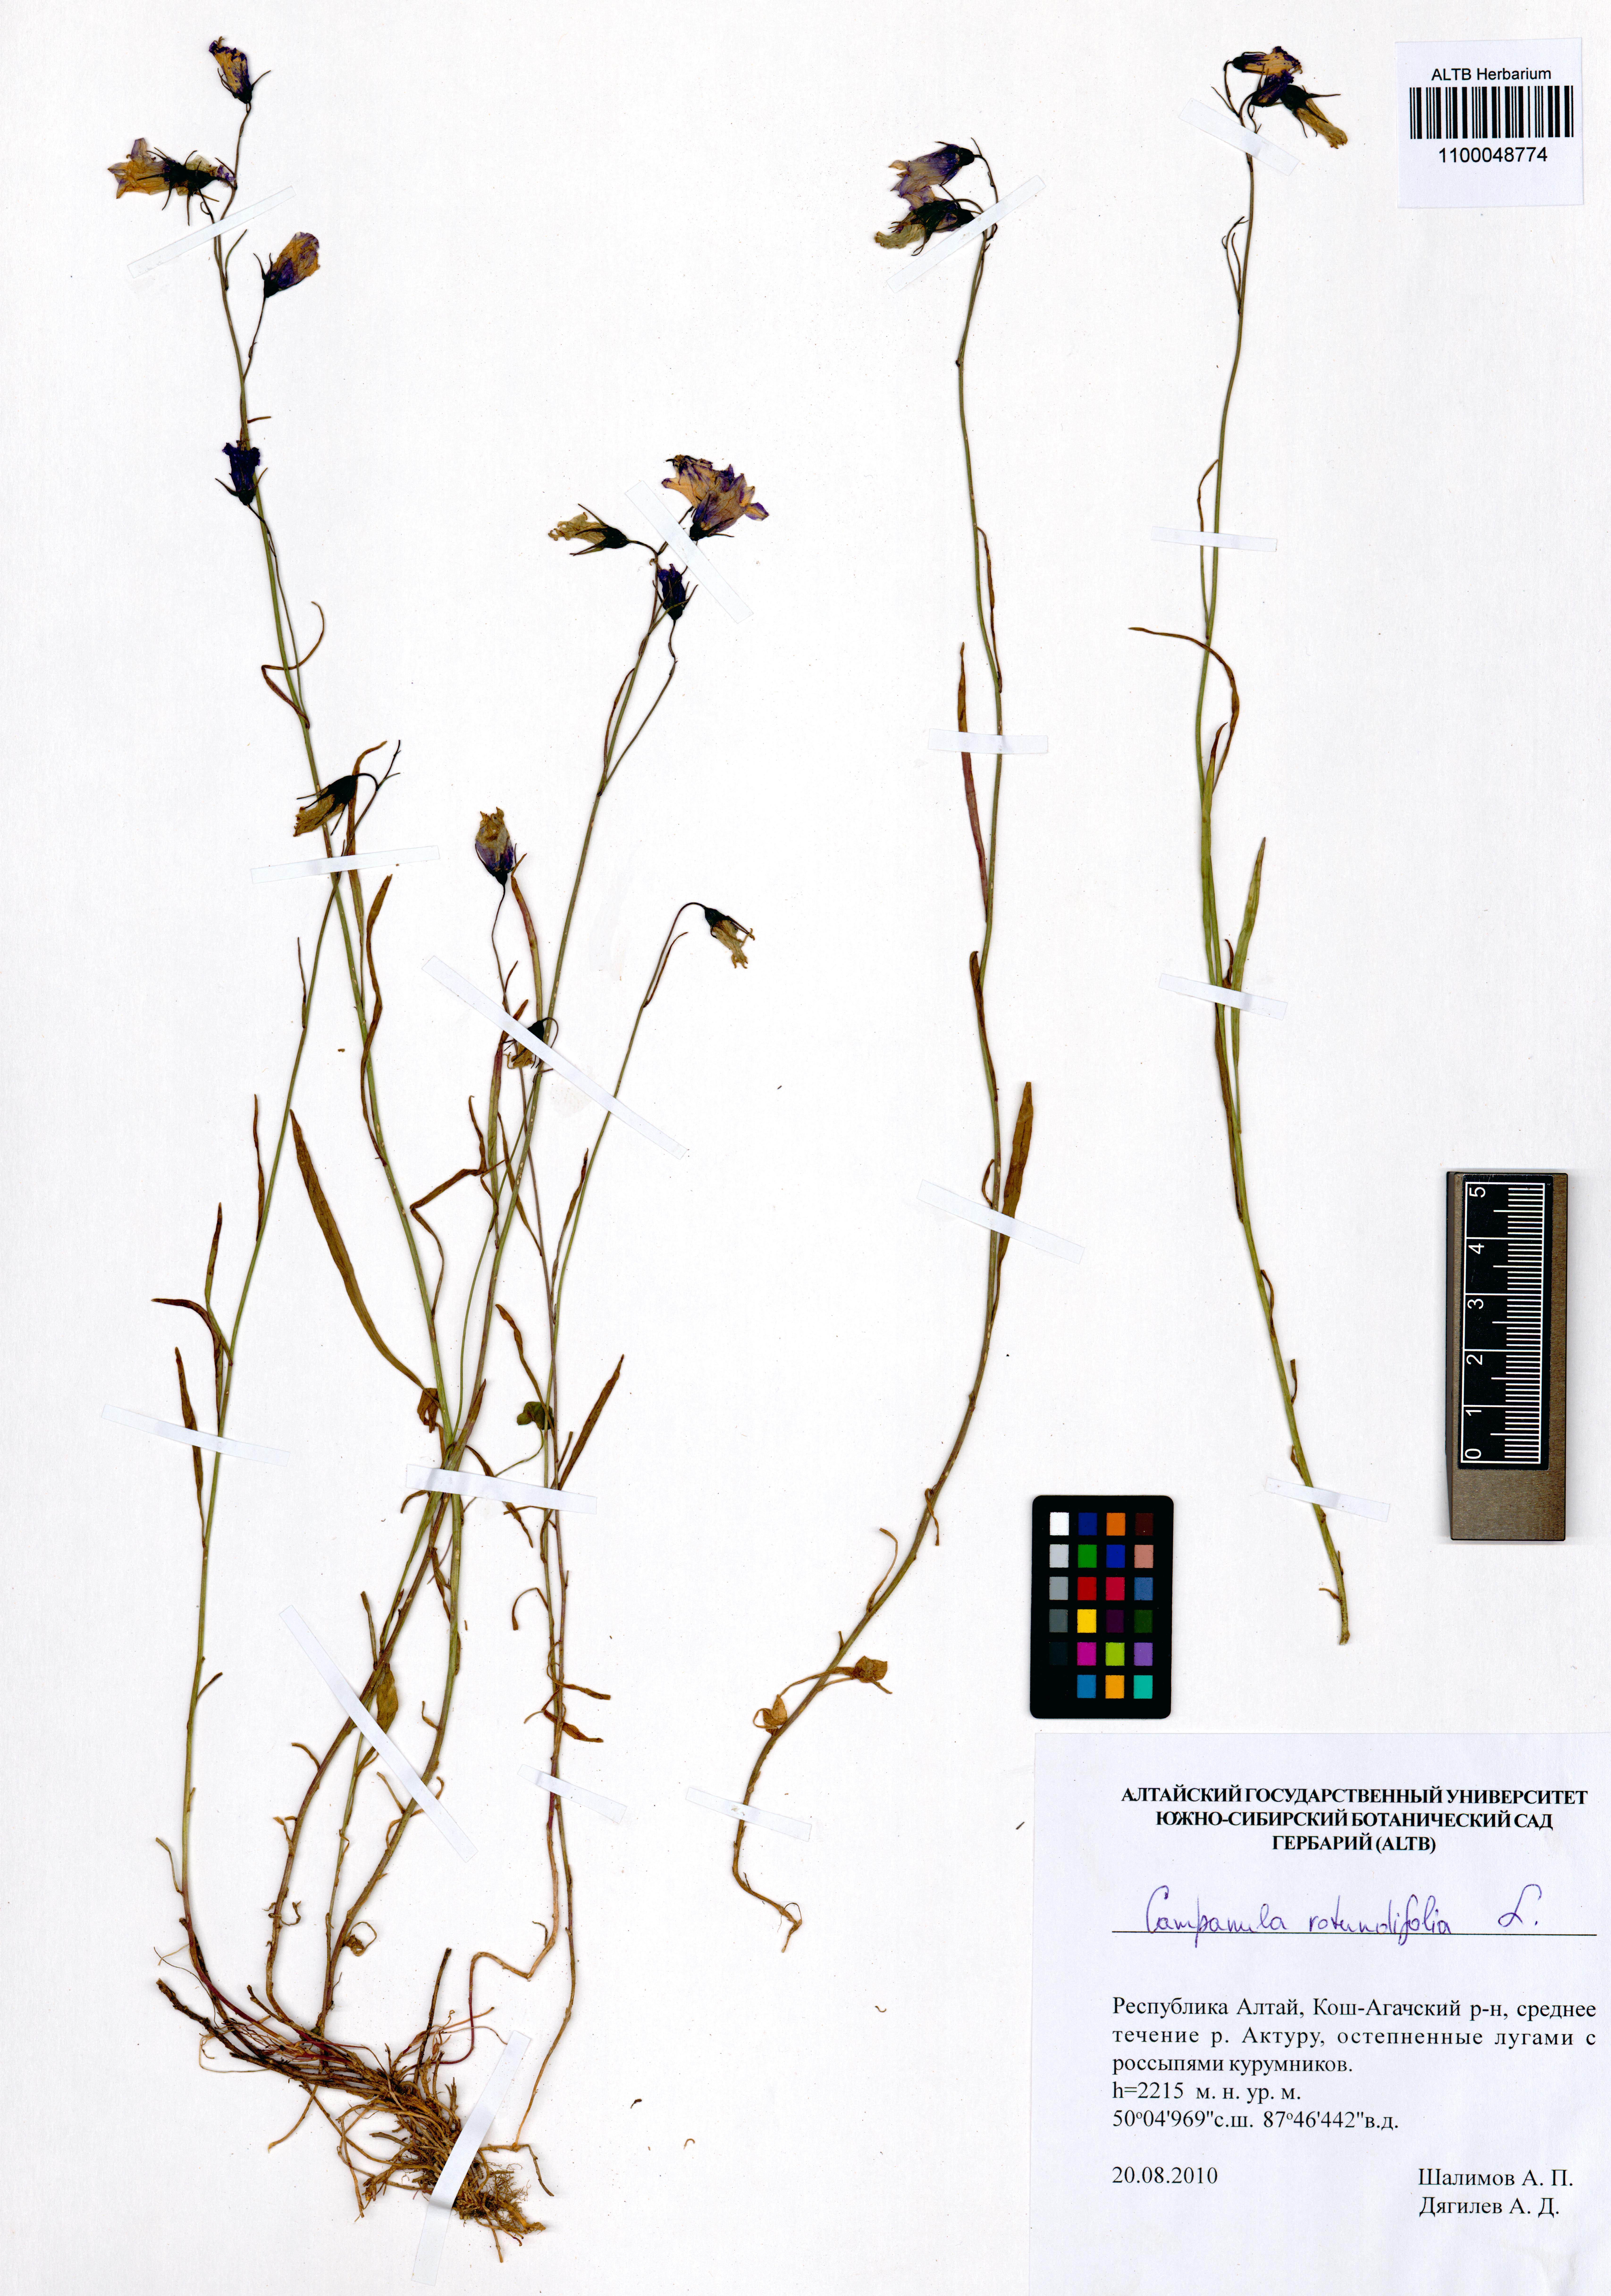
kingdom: Plantae
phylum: Tracheophyta
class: Magnoliopsida
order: Asterales
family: Campanulaceae
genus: Campanula
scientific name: Campanula rotundifolia
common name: Harebell
